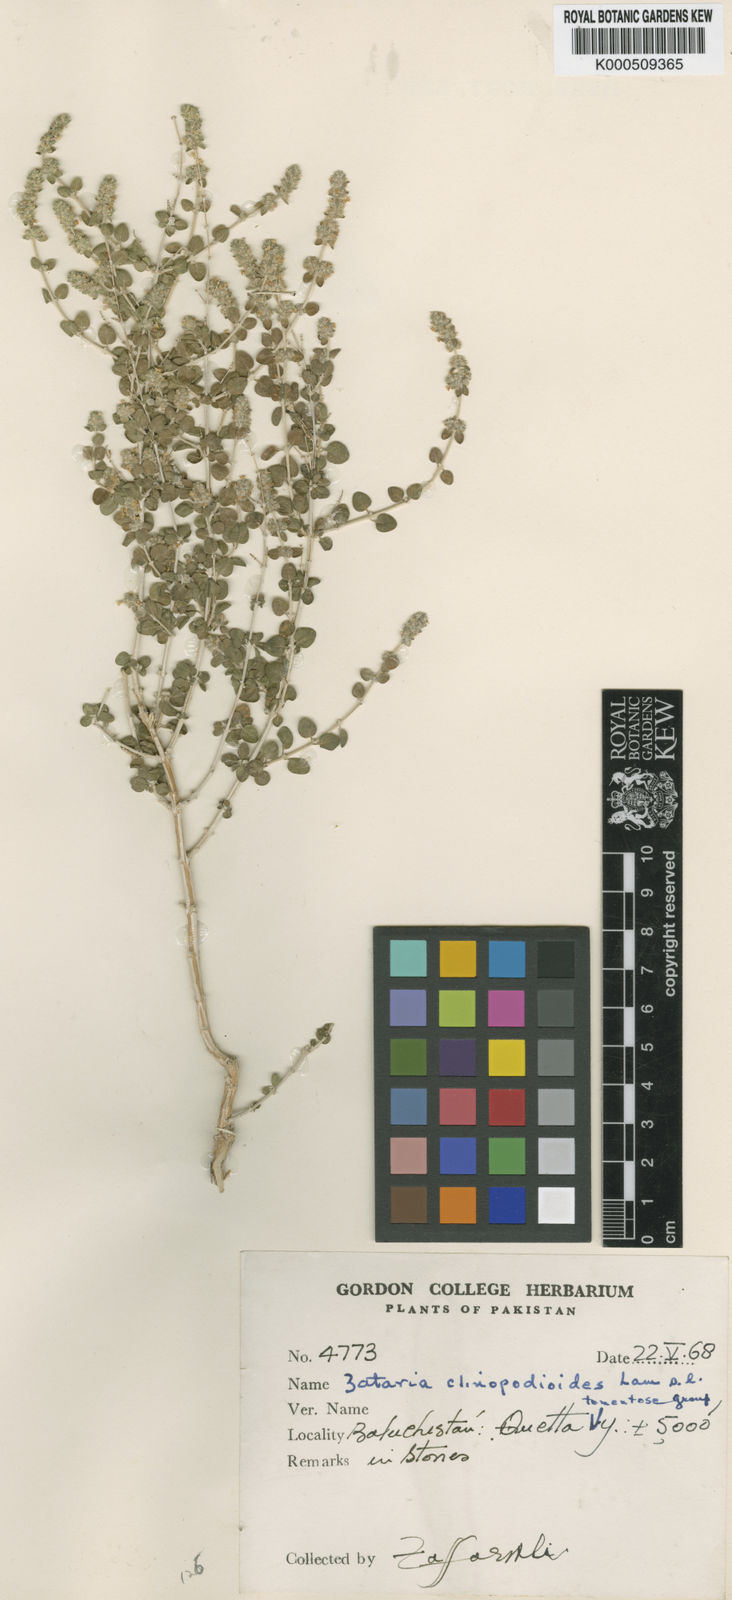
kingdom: Plantae
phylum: Tracheophyta
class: Magnoliopsida
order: Lamiales
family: Lamiaceae
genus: Zataria
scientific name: Zataria multiflora
